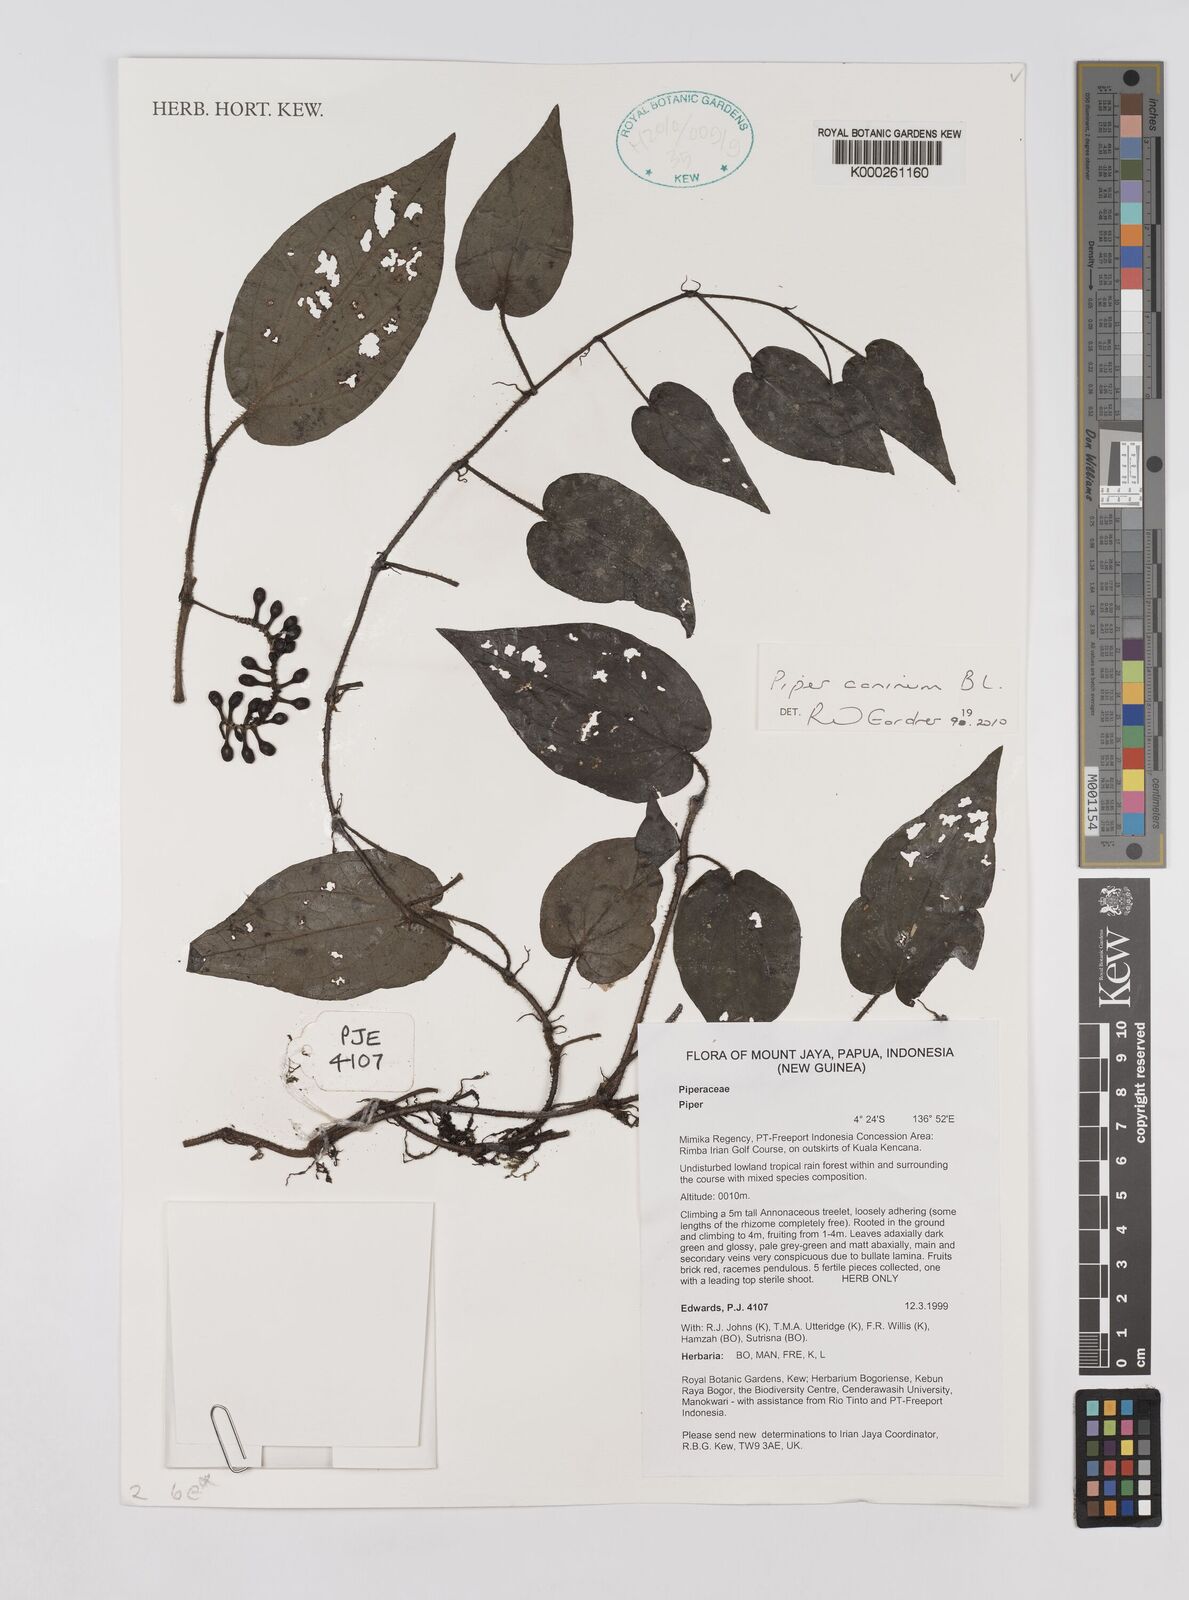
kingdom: Plantae
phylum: Tracheophyta
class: Magnoliopsida
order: Piperales
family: Piperaceae
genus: Piper
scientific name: Piper
